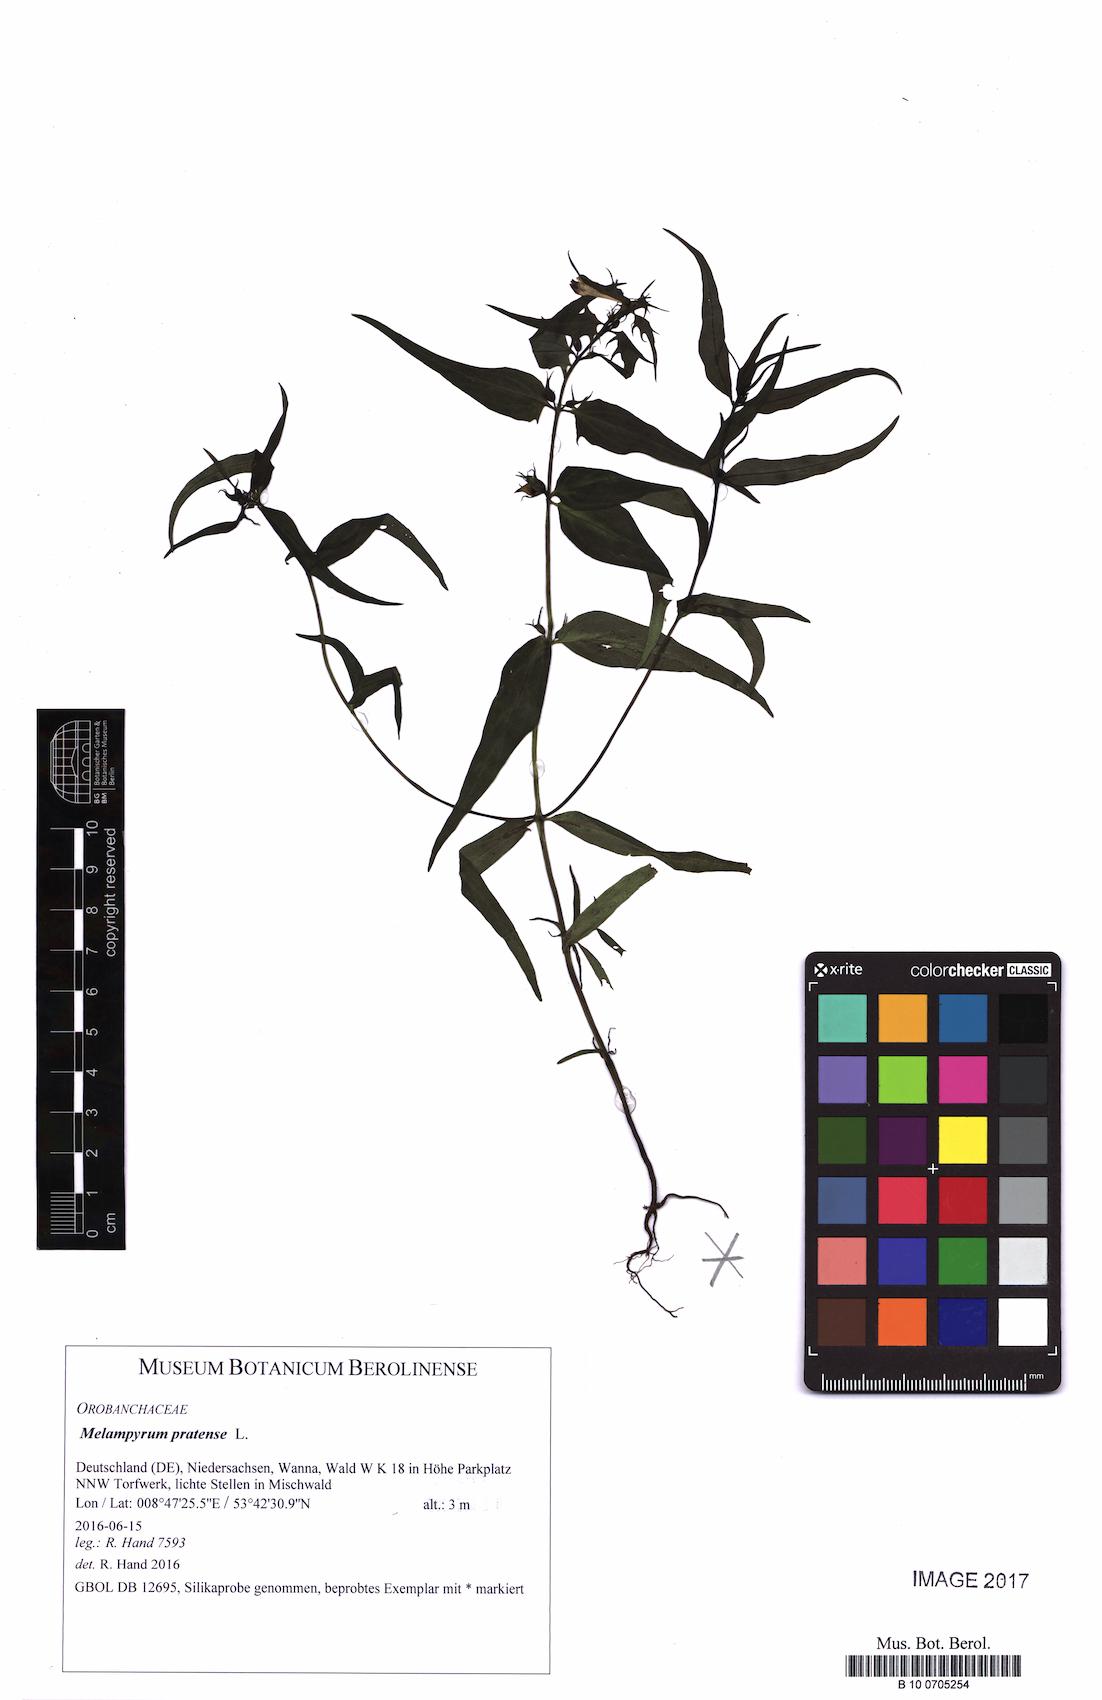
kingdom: Plantae
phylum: Tracheophyta
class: Magnoliopsida
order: Lamiales
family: Orobanchaceae
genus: Melampyrum
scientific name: Melampyrum pratense
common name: Common cow-wheat
